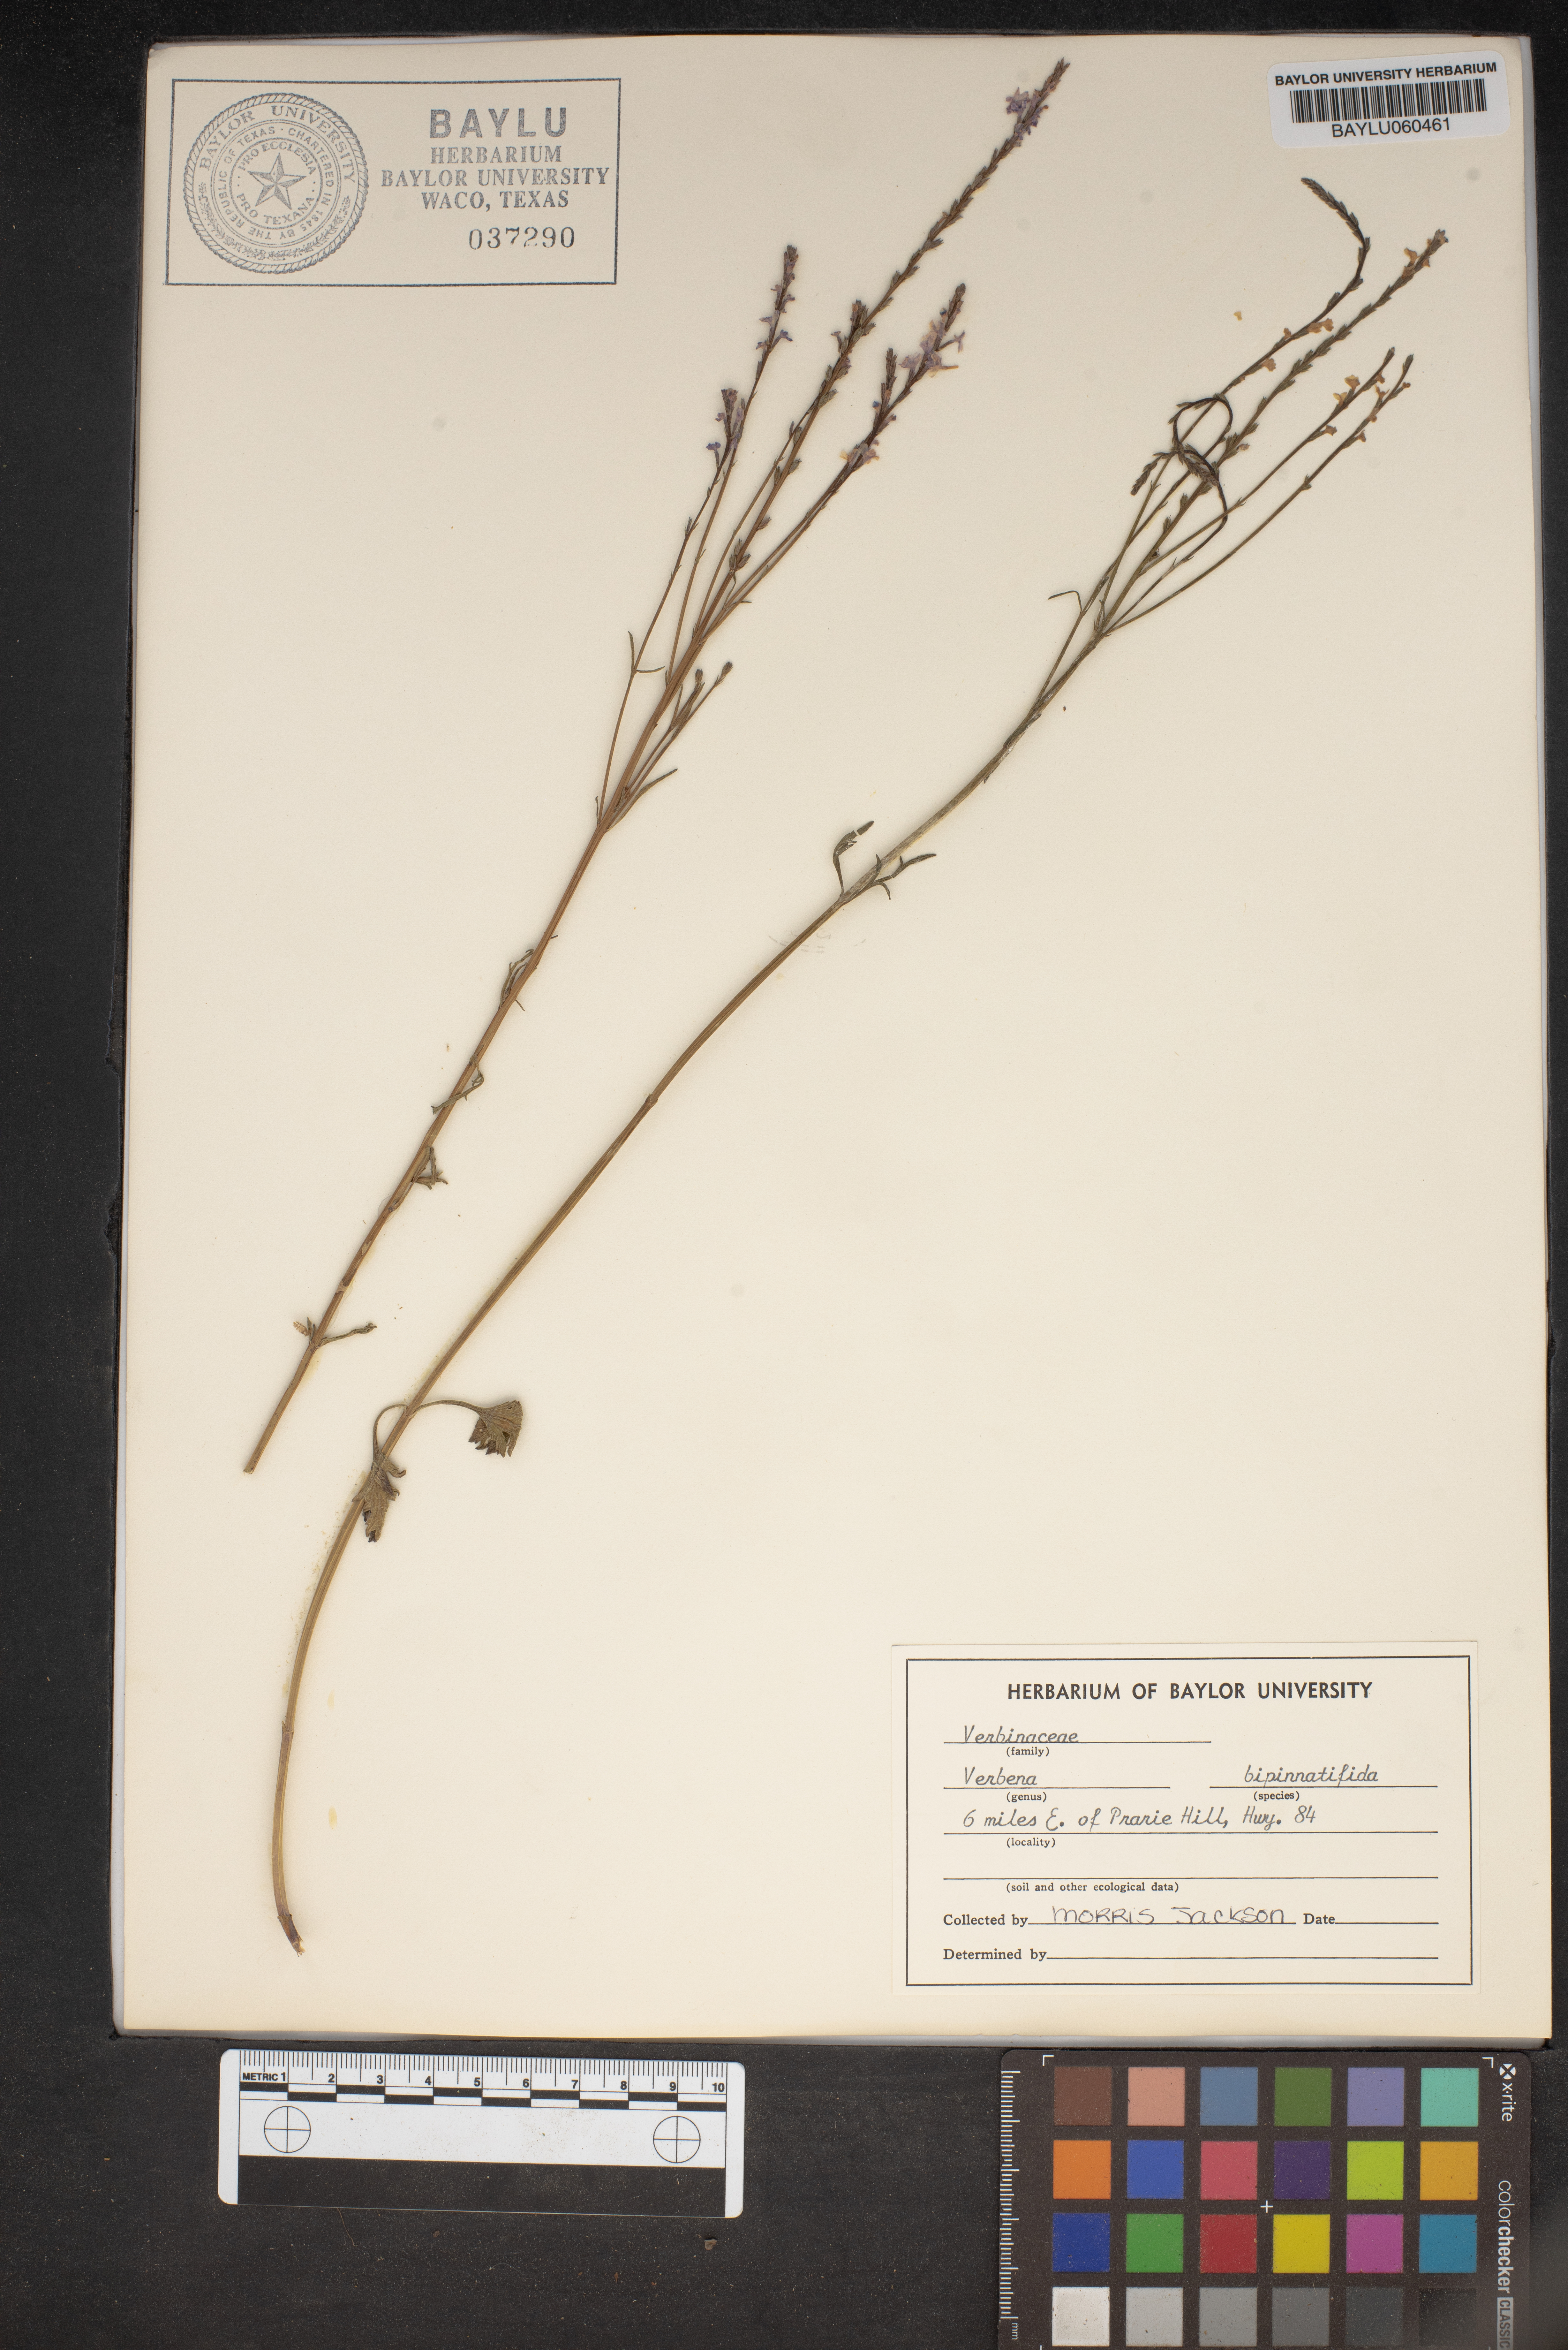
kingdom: Plantae
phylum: Tracheophyta
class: Magnoliopsida
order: Lamiales
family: Verbenaceae
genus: Verbena
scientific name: Verbena bipinnatifida
